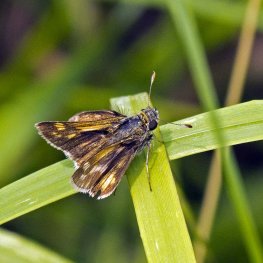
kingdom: Animalia
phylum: Arthropoda
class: Insecta
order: Lepidoptera
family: Hesperiidae
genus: Polites
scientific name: Polites coras
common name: Peck's Skipper
